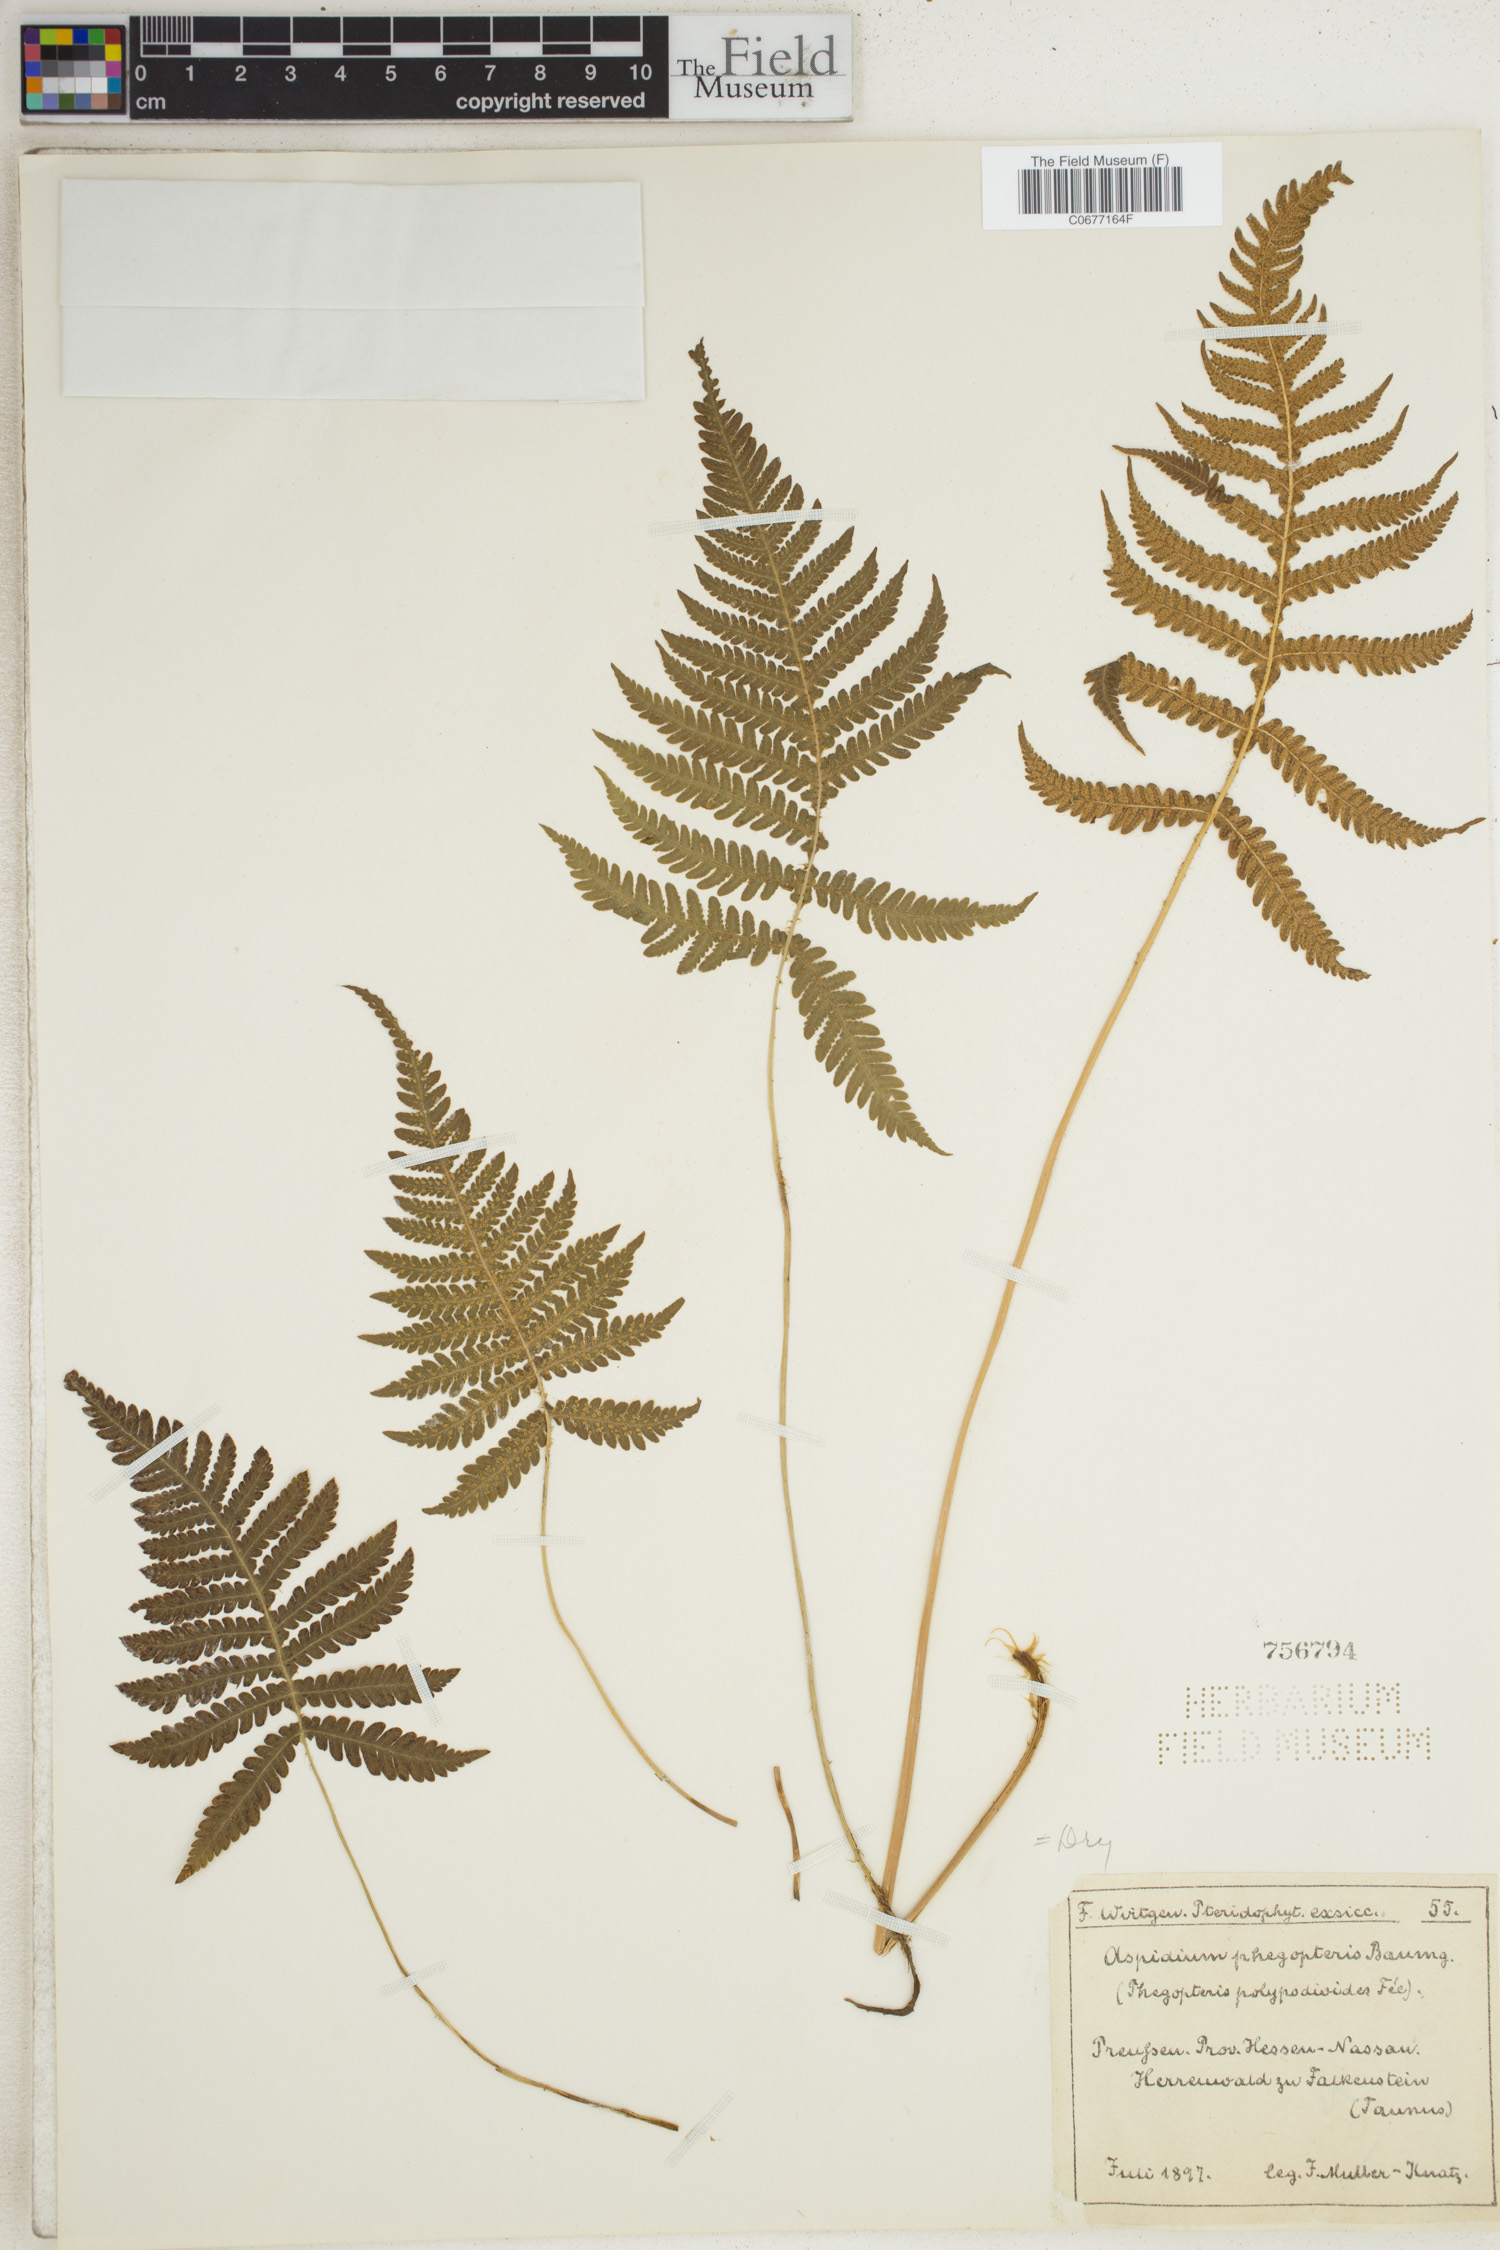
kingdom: Plantae
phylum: Tracheophyta
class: Polypodiopsida
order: Polypodiales
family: Thelypteridaceae
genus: Phegopteris
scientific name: Phegopteris connectilis
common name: Beech fern
